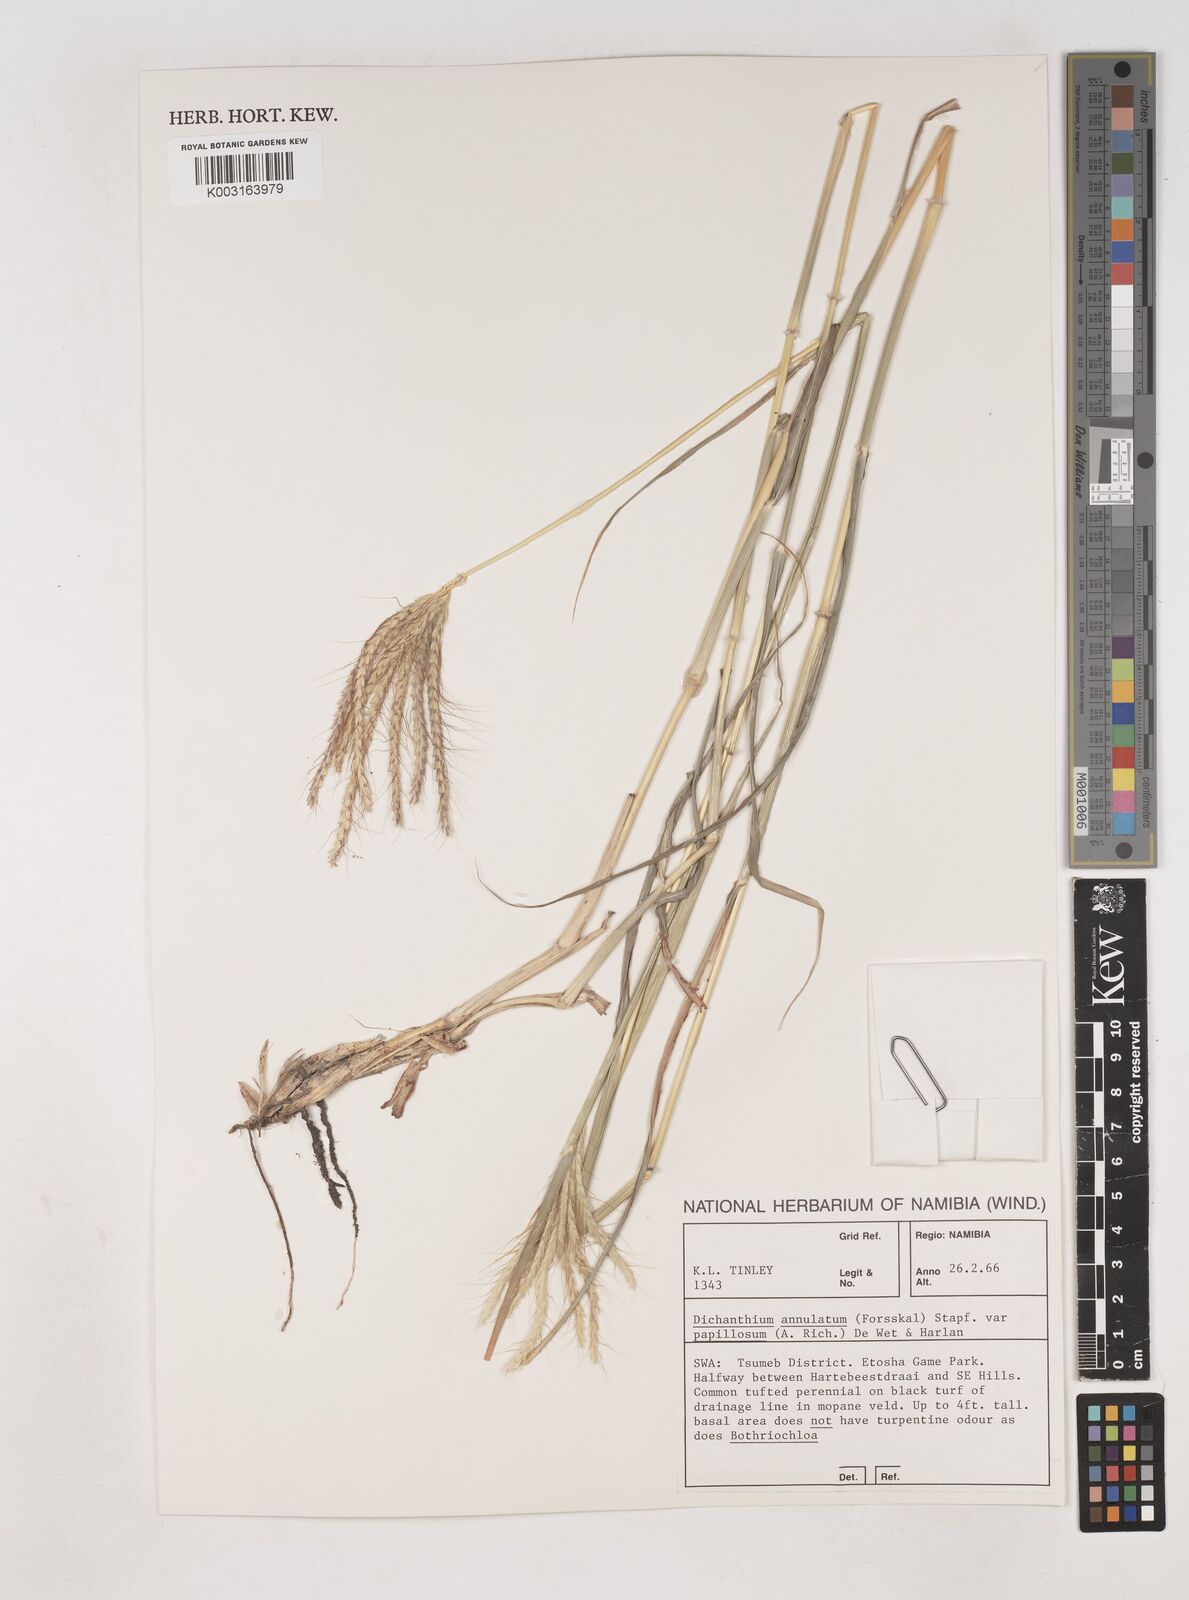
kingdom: Plantae
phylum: Tracheophyta
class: Liliopsida
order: Poales
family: Poaceae
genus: Dichanthium
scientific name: Dichanthium annulatum
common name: Kleberg's bluestem
